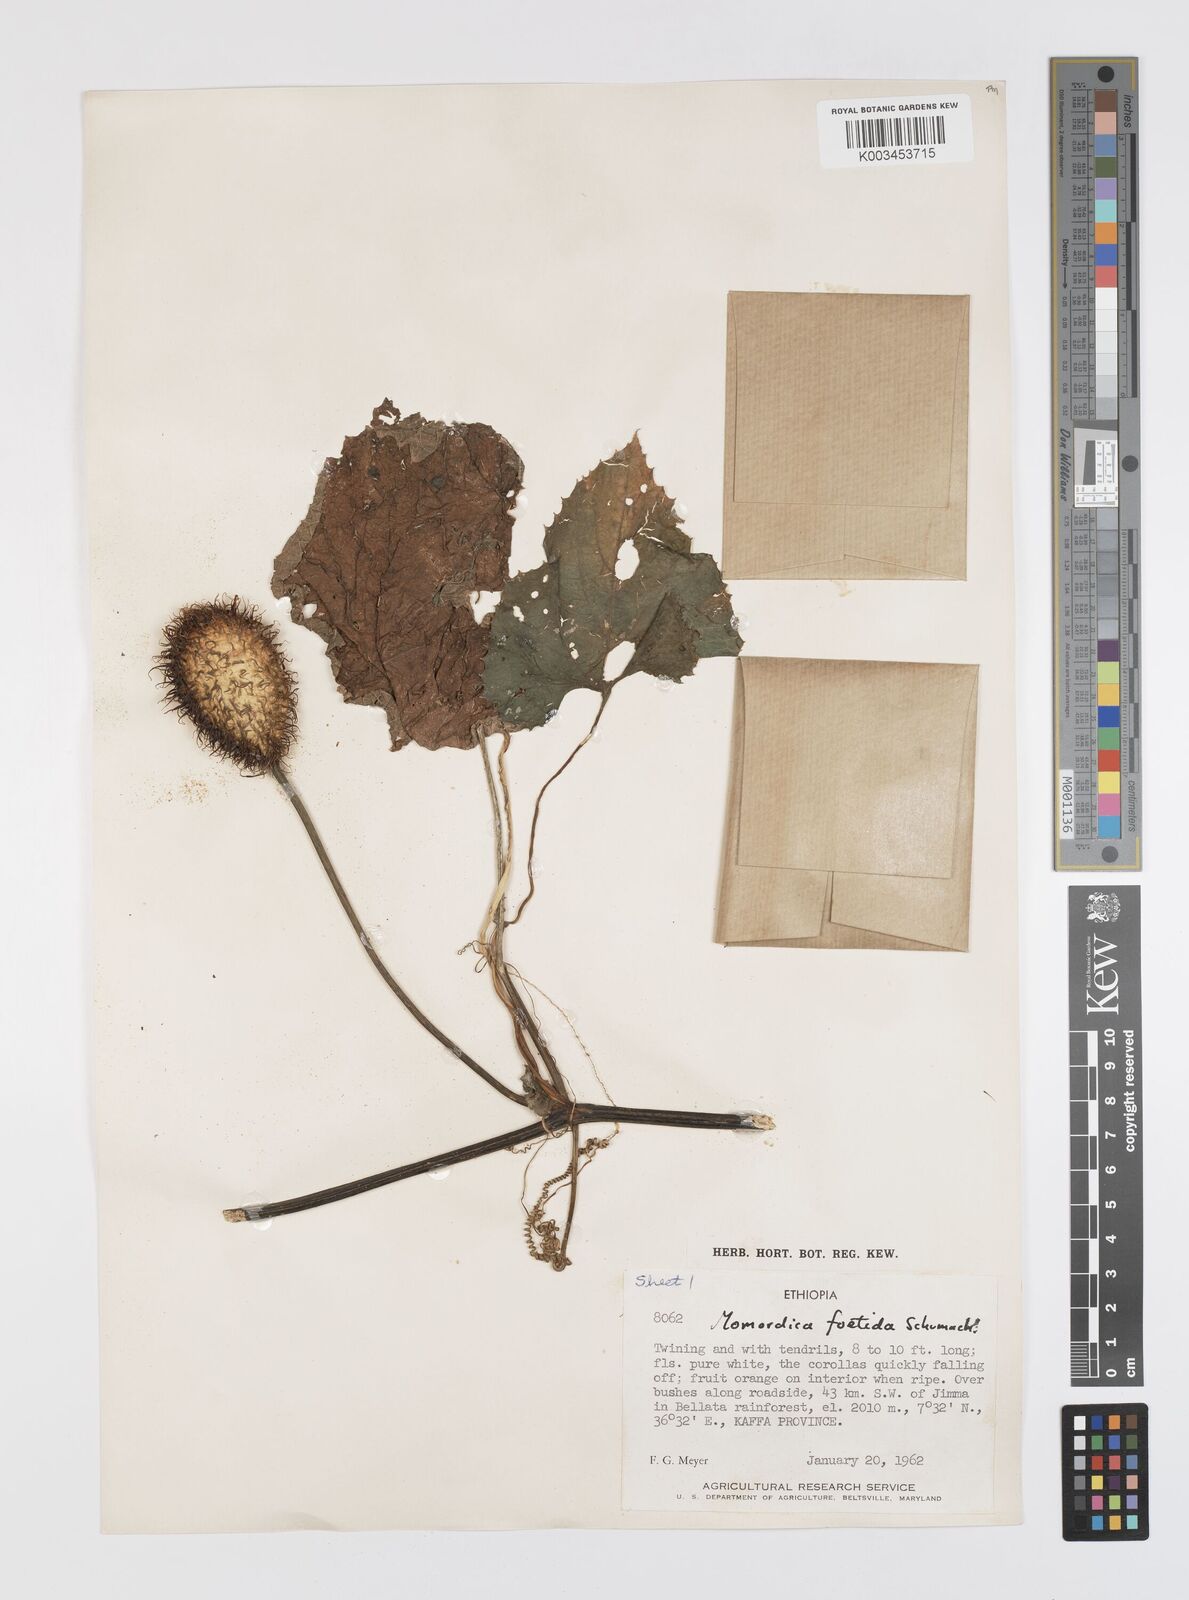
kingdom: Plantae
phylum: Tracheophyta
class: Magnoliopsida
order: Cucurbitales
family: Cucurbitaceae
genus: Momordica
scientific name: Momordica foetida
